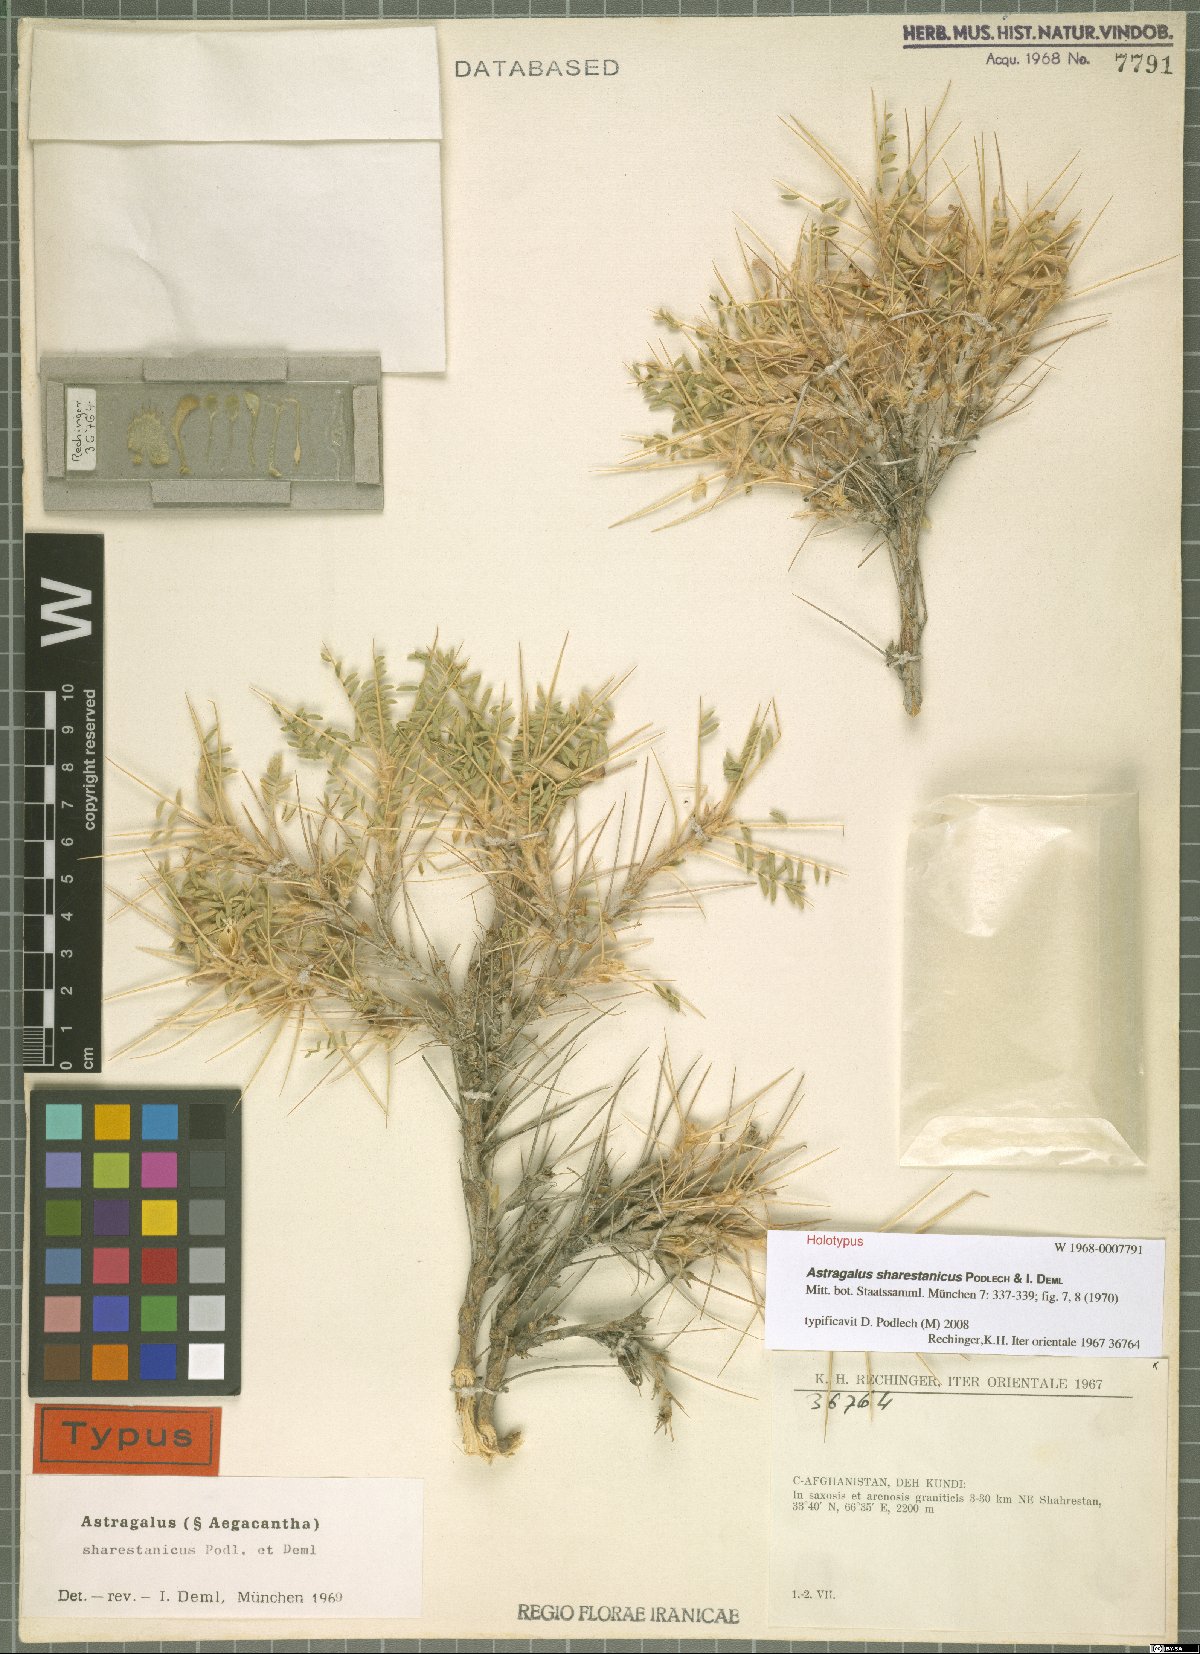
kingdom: Plantae
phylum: Tracheophyta
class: Magnoliopsida
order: Fabales
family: Fabaceae
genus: Astragalus
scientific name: Astragalus sharestanicus
